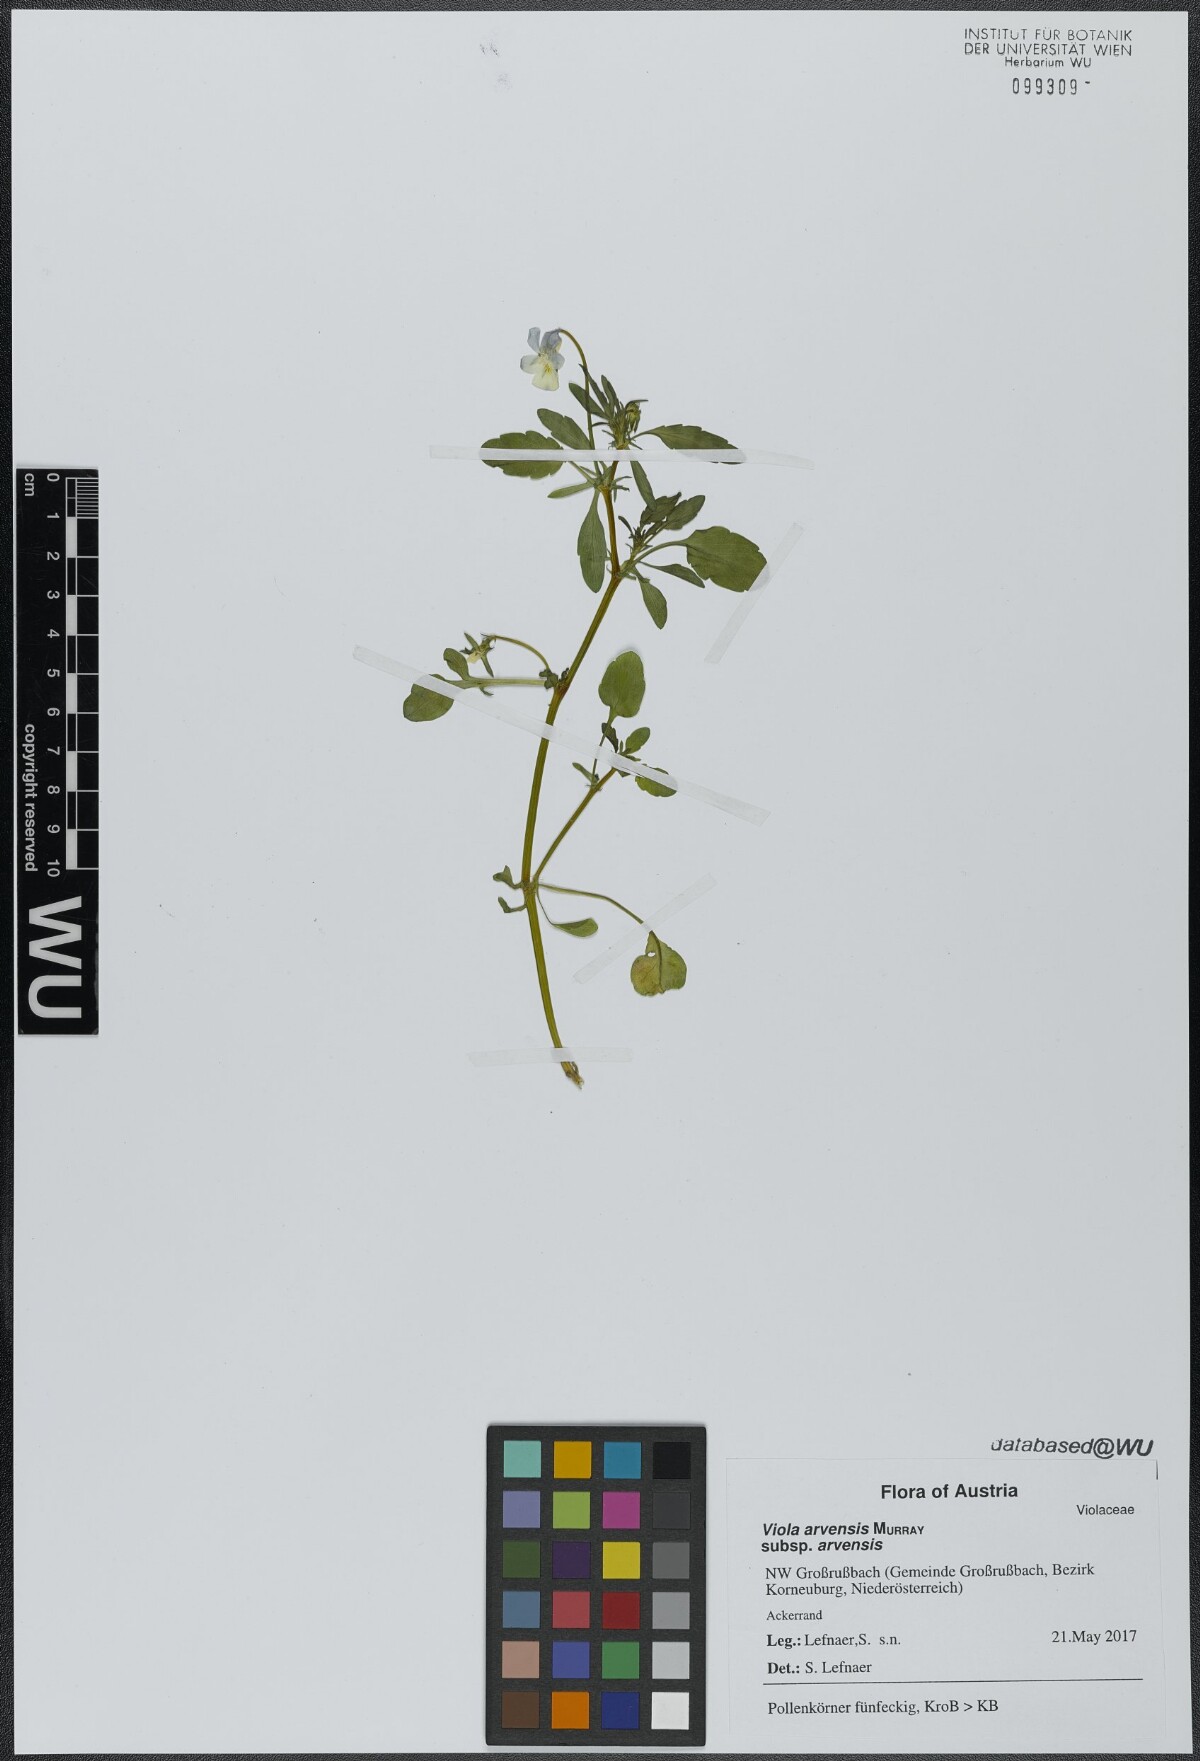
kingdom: Plantae
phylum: Tracheophyta
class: Magnoliopsida
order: Malpighiales
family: Violaceae
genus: Viola
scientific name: Viola arvensis
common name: Field pansy
